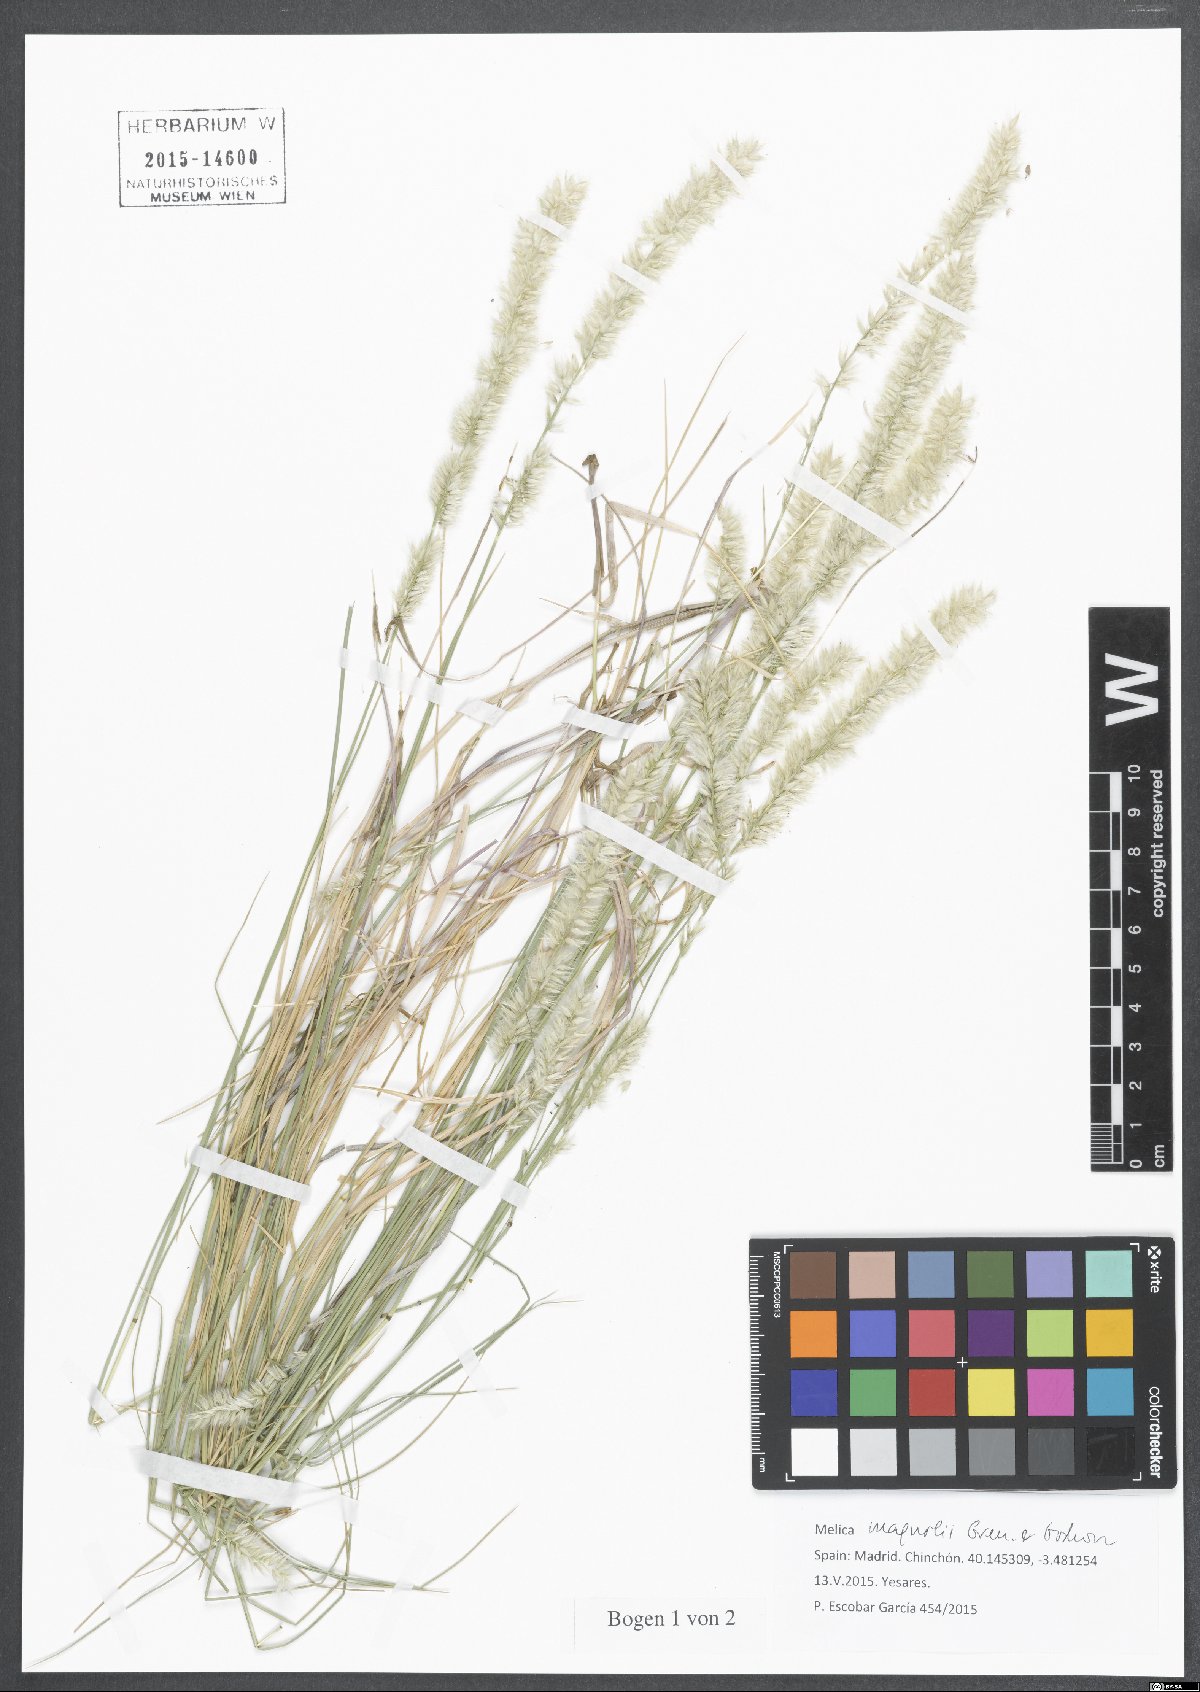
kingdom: Plantae
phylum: Tracheophyta
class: Liliopsida
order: Poales
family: Poaceae
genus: Melica
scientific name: Melica ciliata
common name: Hairy melicgrass
